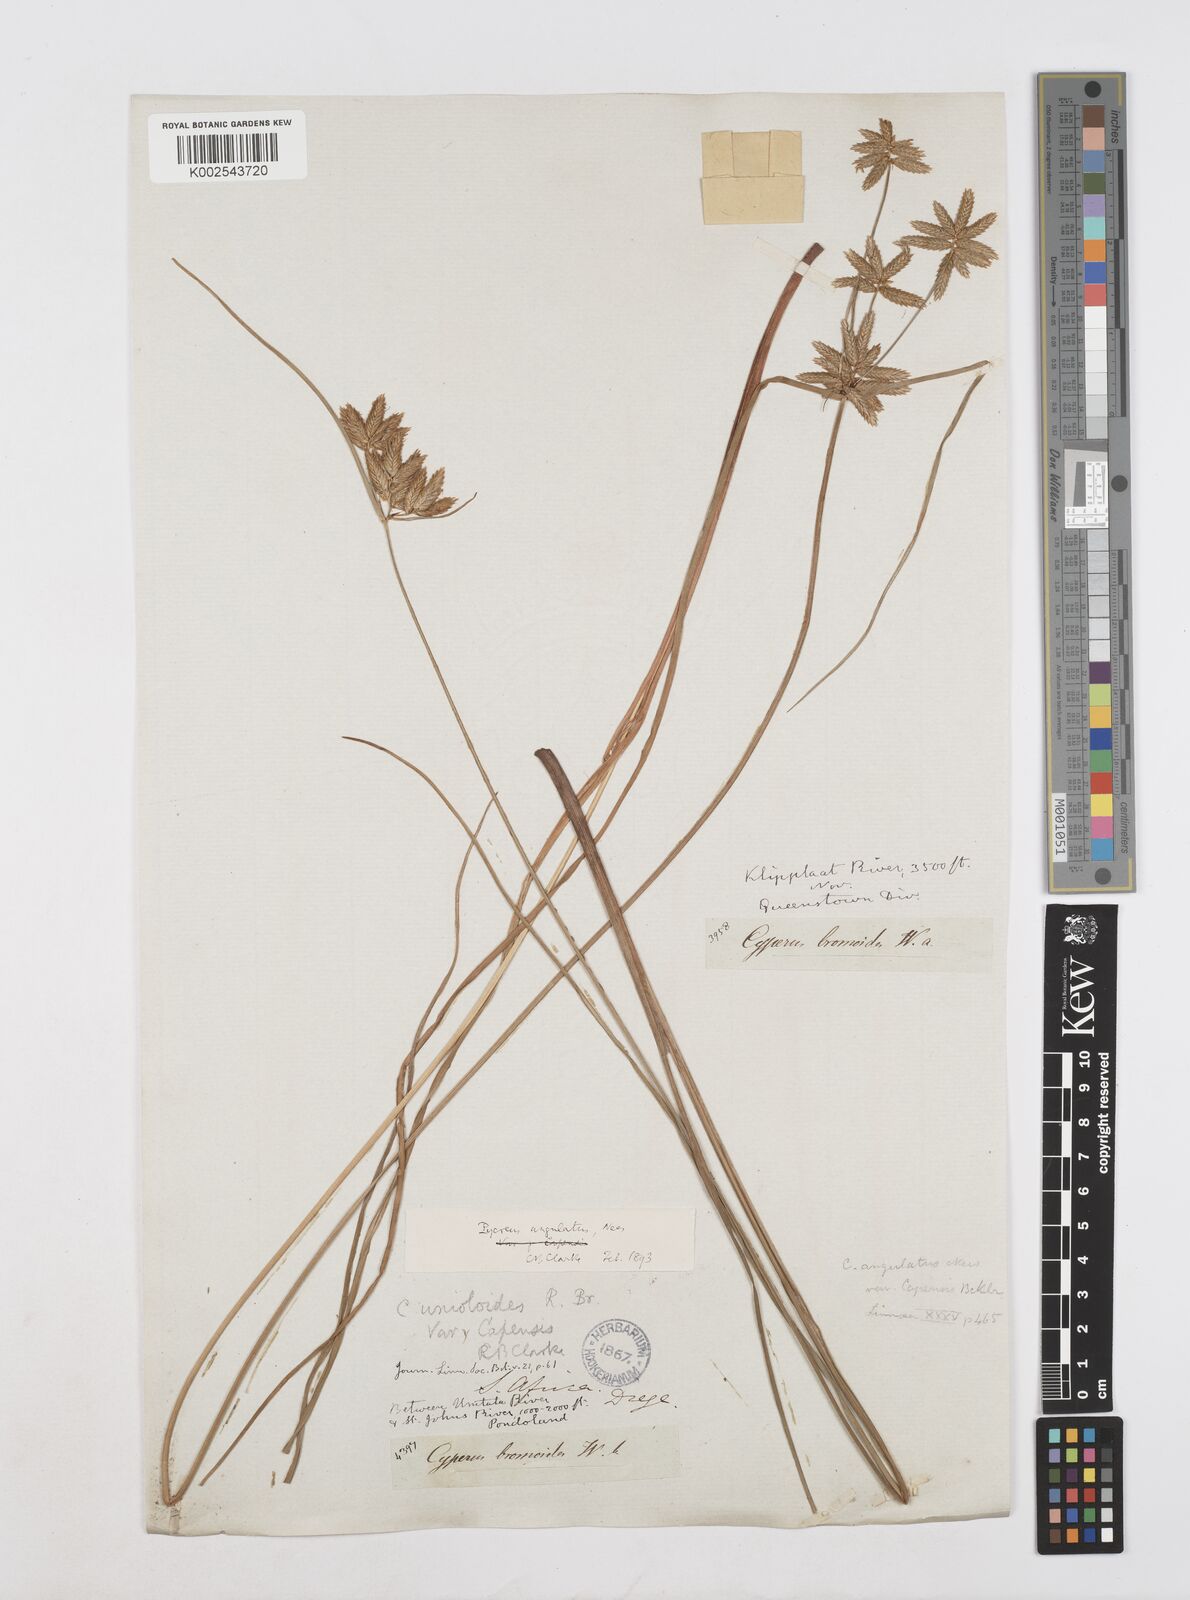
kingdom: Plantae
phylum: Tracheophyta
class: Liliopsida
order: Poales
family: Cyperaceae
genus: Cyperus
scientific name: Cyperus unioloides
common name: Uniola flatsedge
